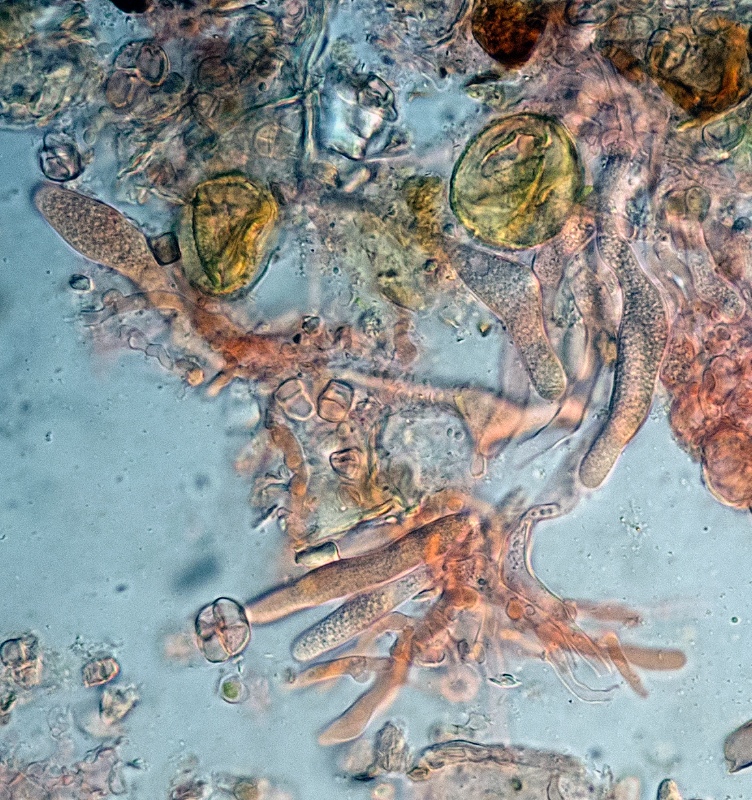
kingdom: Fungi
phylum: Basidiomycota
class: Agaricomycetes
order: Russulales
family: Stereaceae
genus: Gloeocystidiellum
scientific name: Gloeocystidiellum luridum
